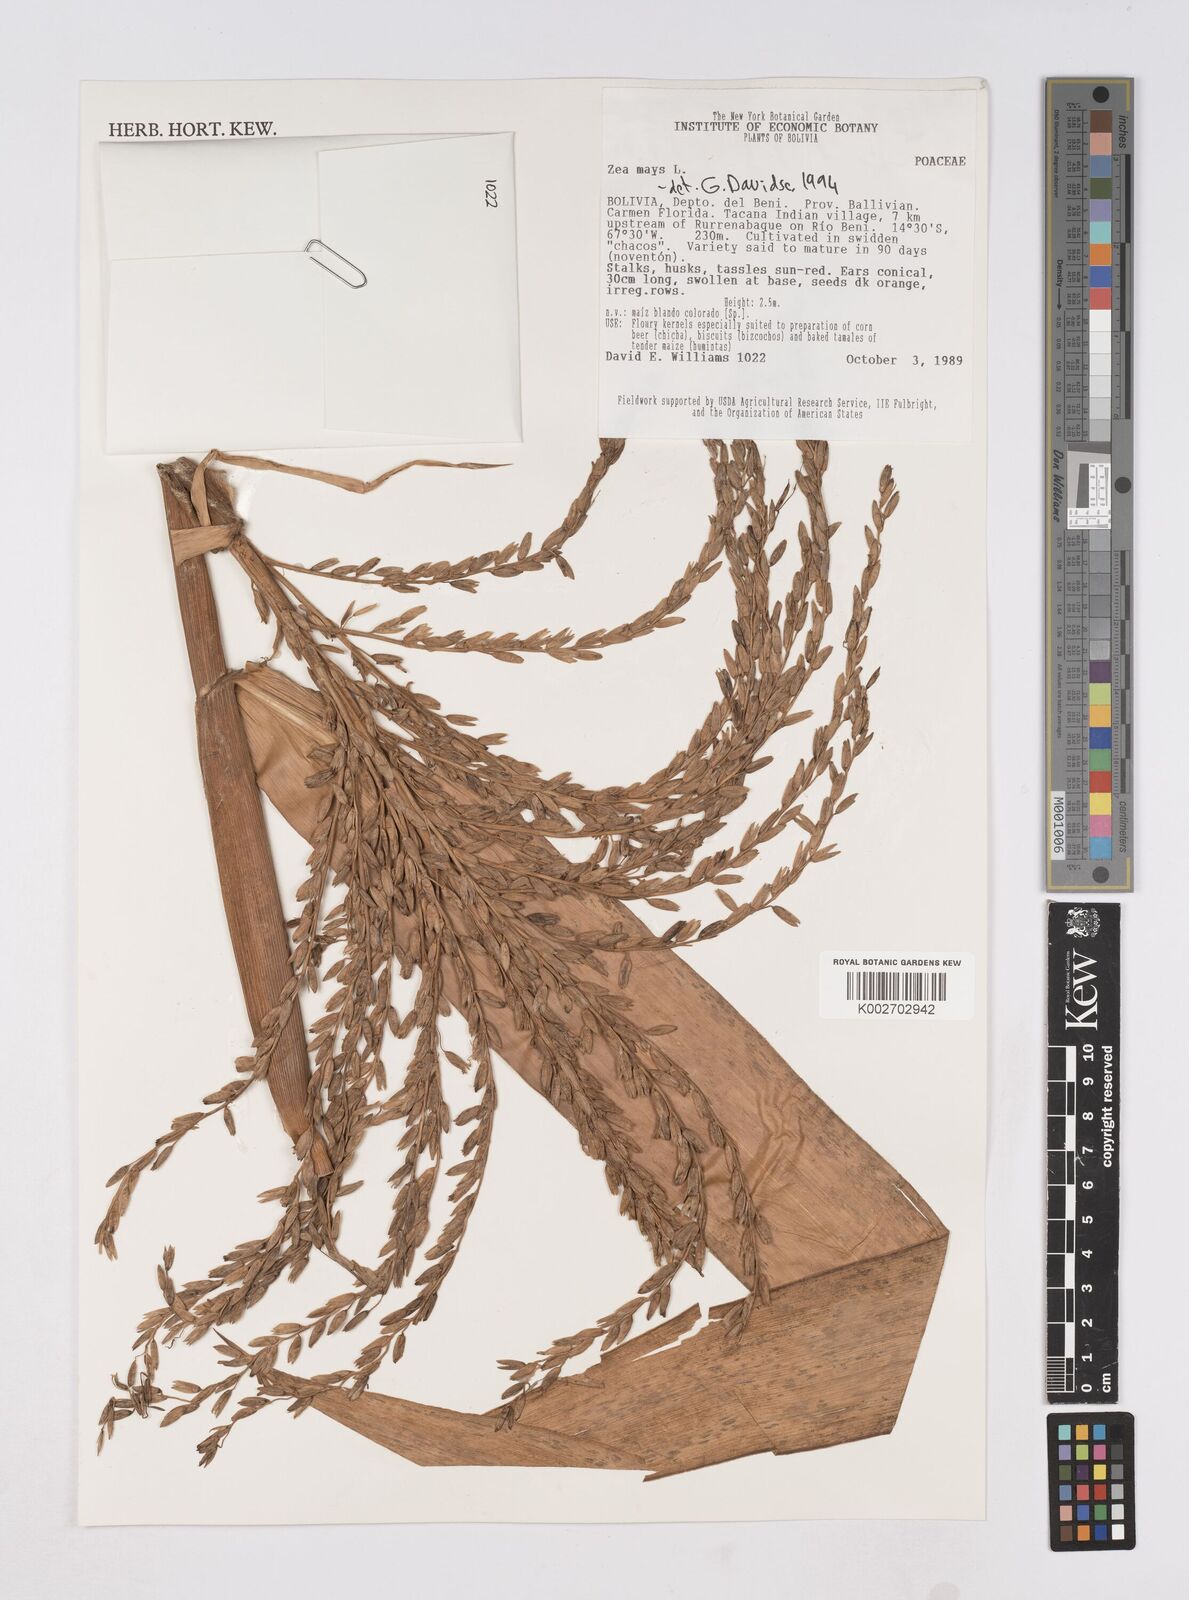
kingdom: Plantae
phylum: Tracheophyta
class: Liliopsida
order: Poales
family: Poaceae
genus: Zea
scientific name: Zea mays
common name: Maize
